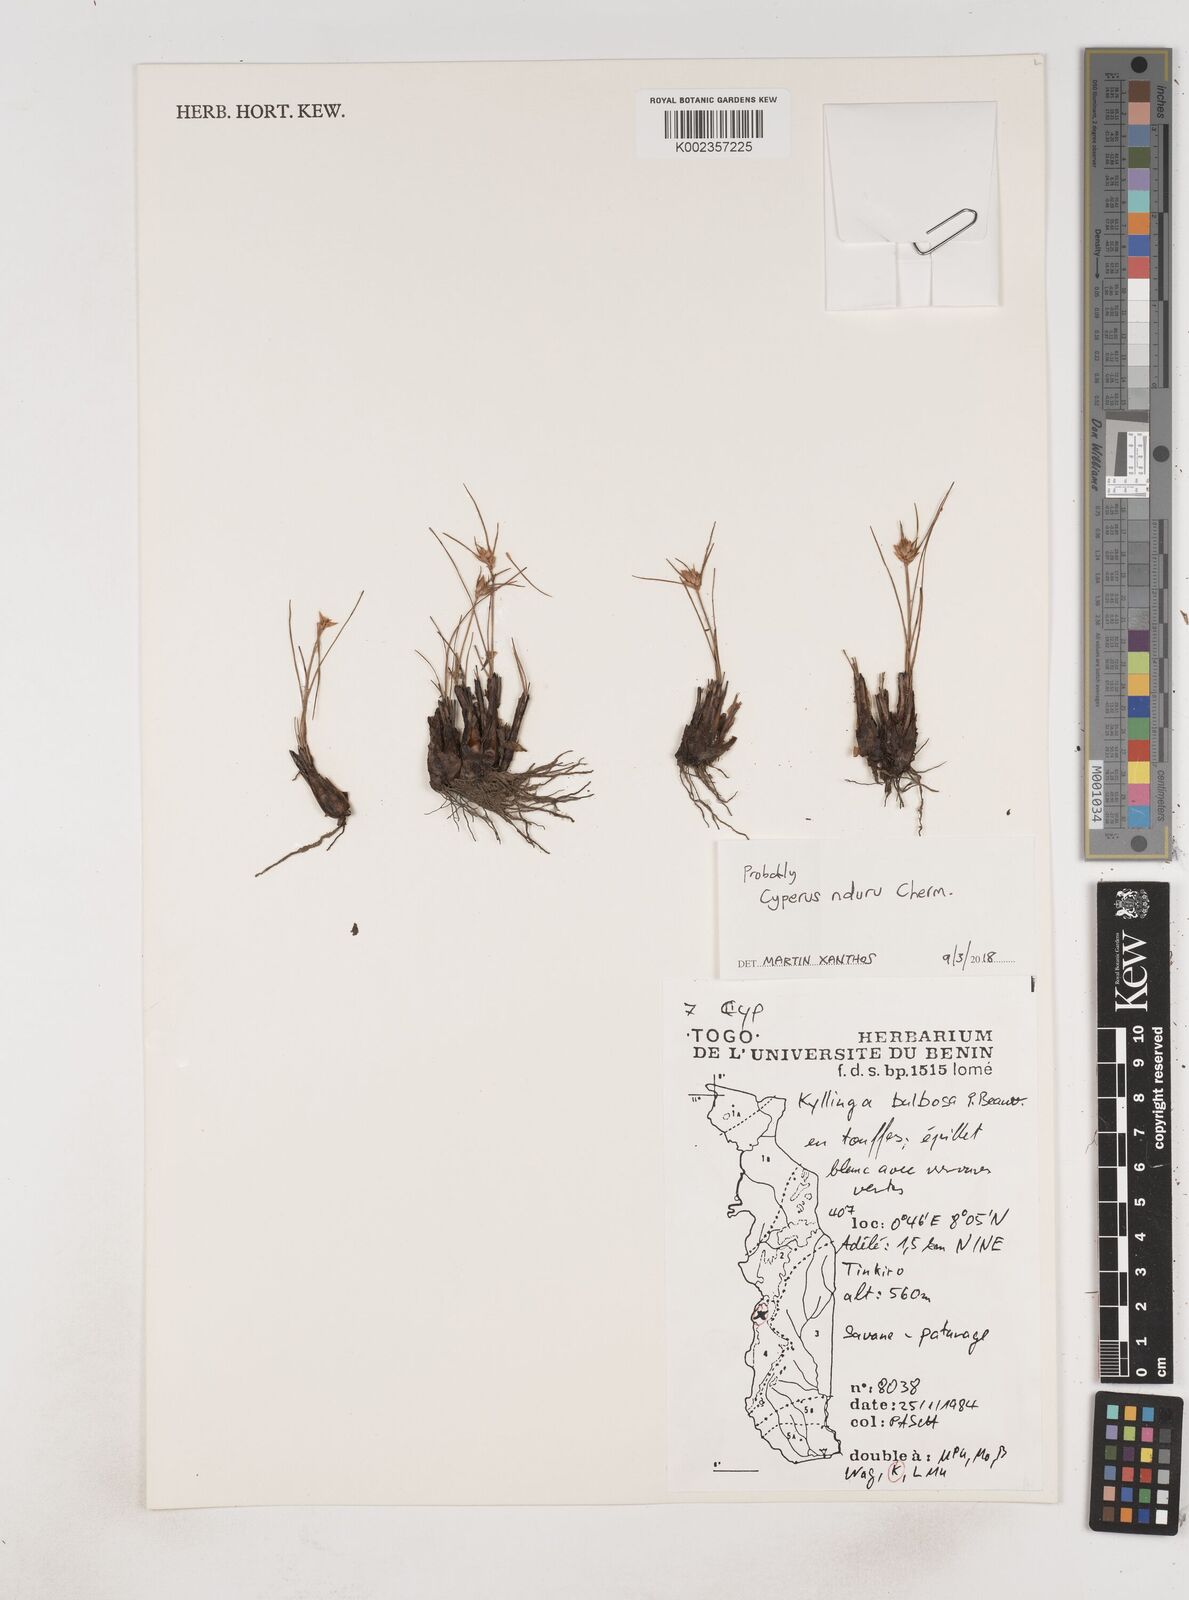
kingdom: Plantae
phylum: Tracheophyta
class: Liliopsida
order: Poales
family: Cyperaceae
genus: Cyperus
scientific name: Cyperus nduru
